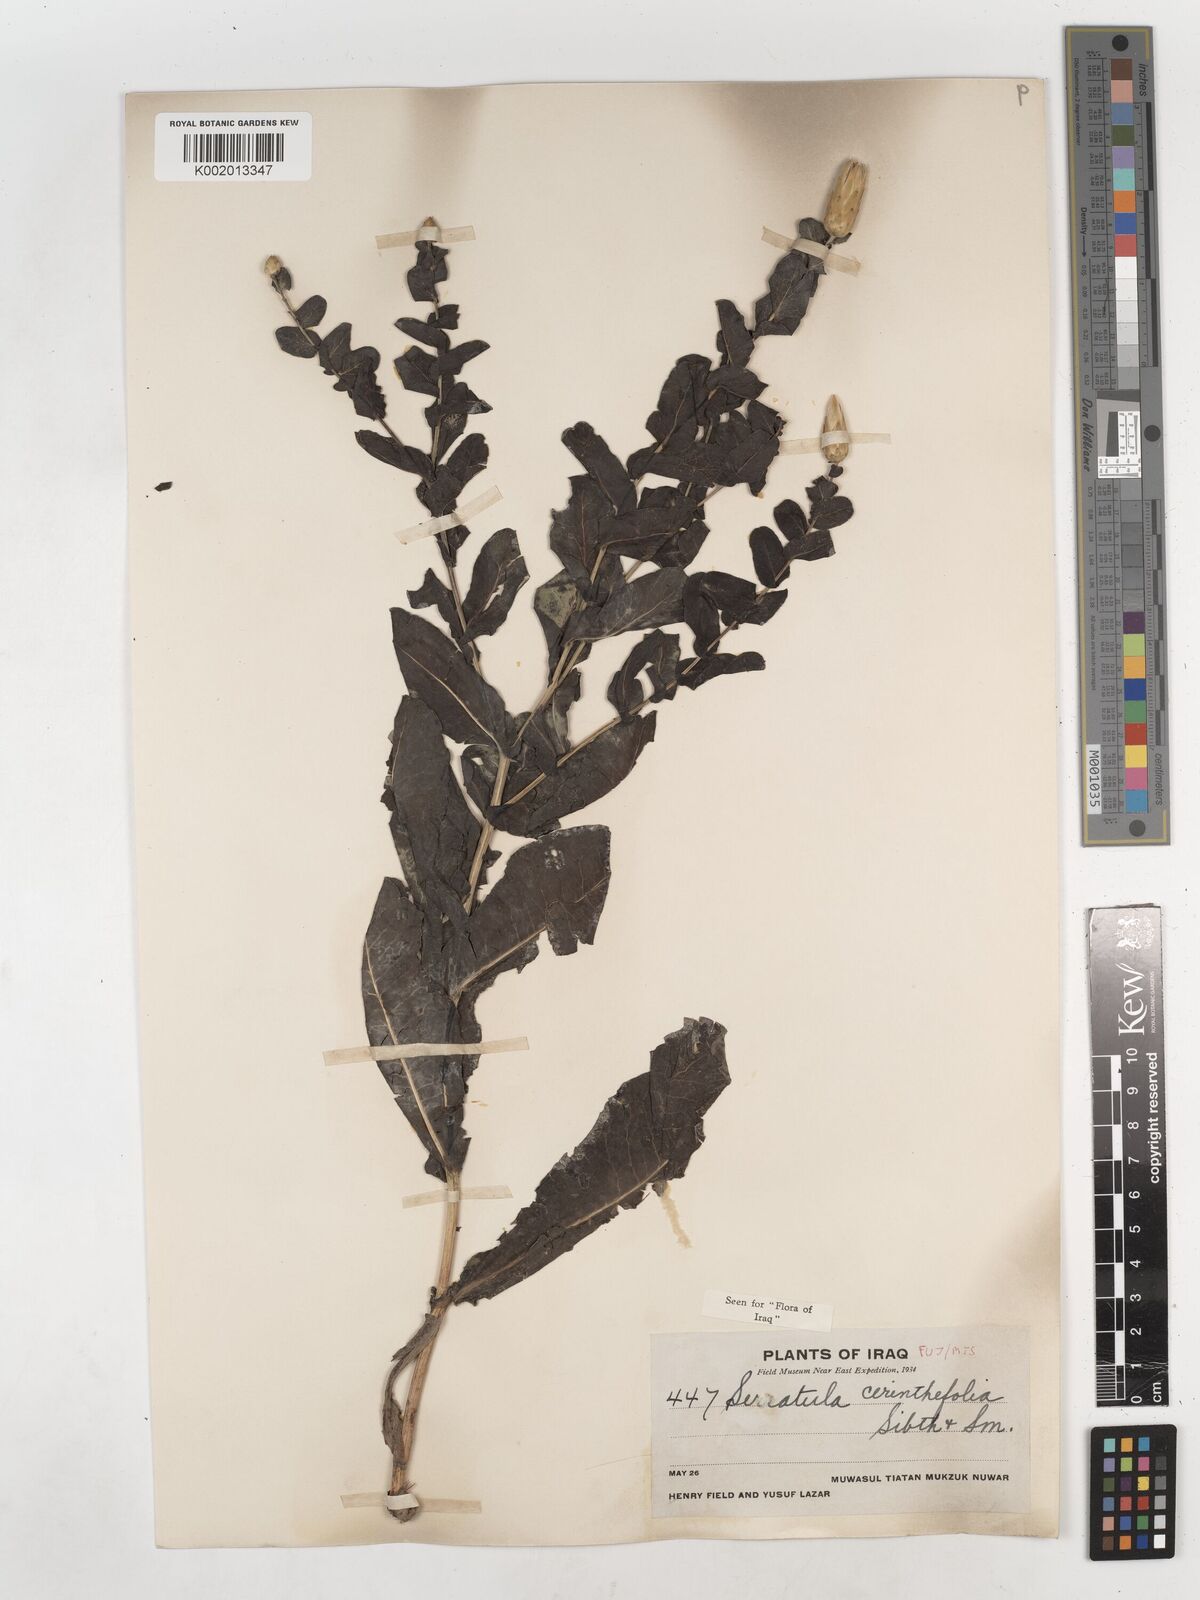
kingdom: Plantae
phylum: Tracheophyta
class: Magnoliopsida
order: Asterales
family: Asteraceae
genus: Klasea
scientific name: Klasea cerinthifolia
